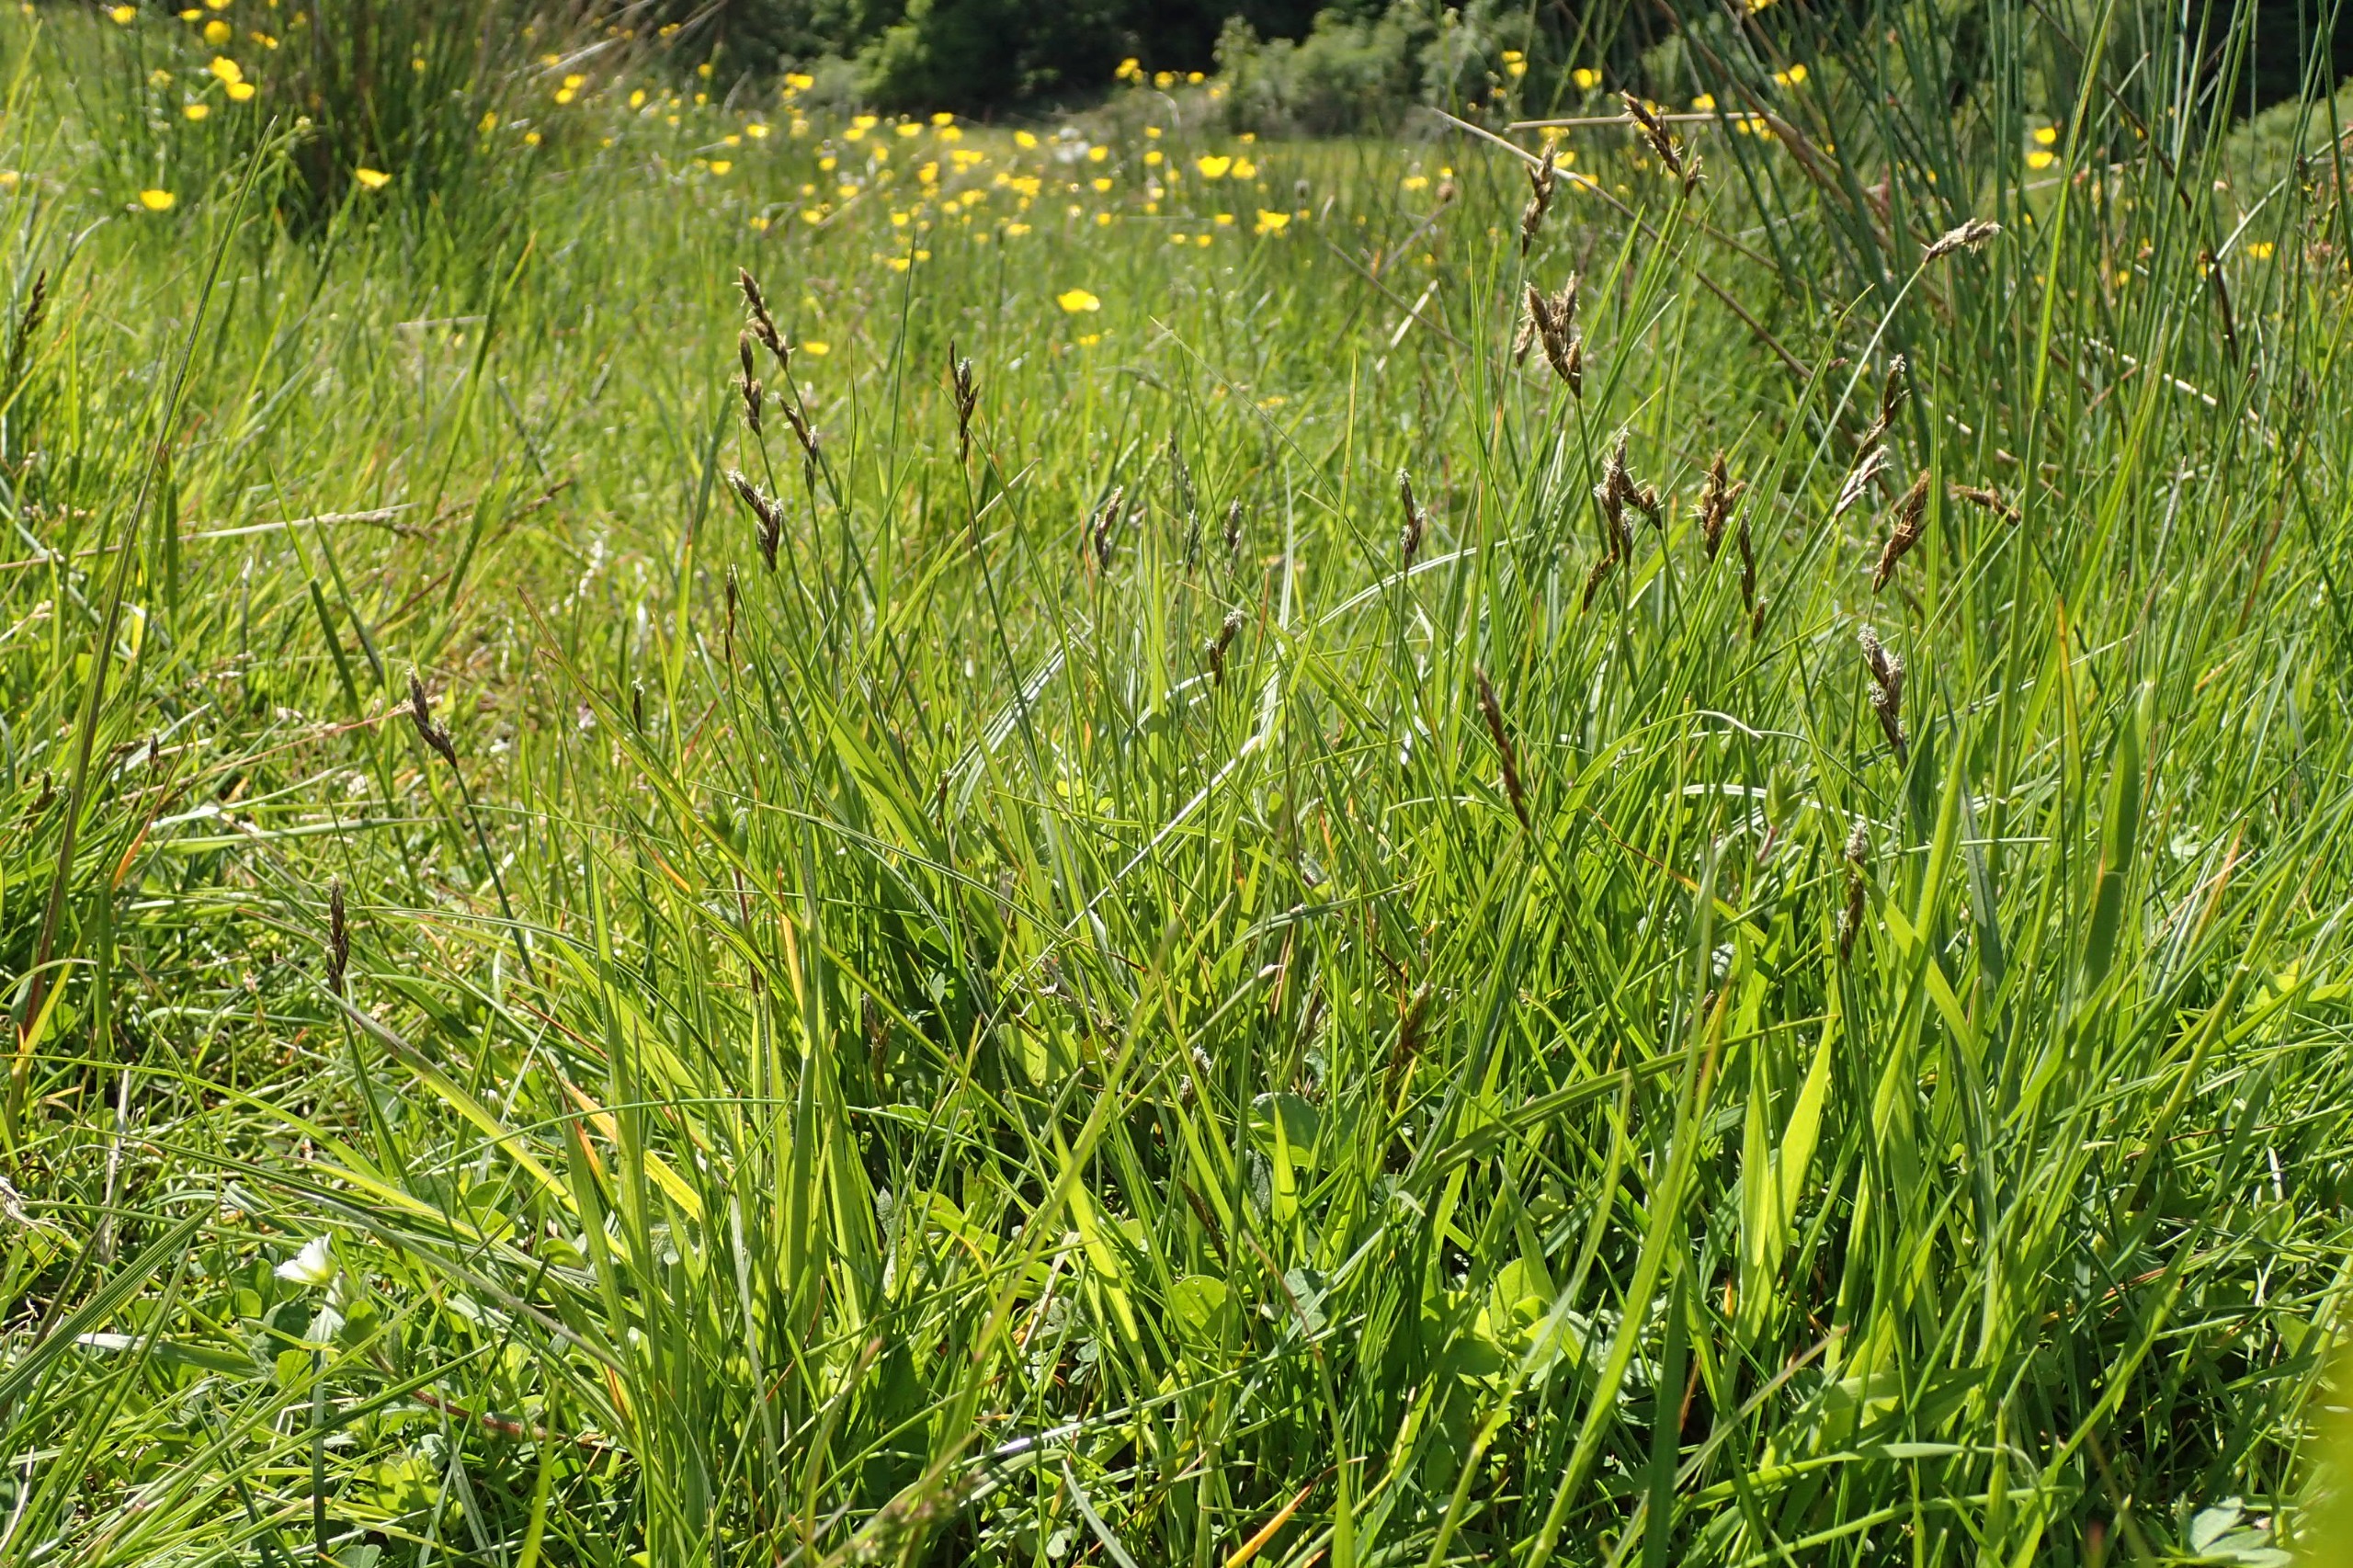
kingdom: Plantae
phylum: Tracheophyta
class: Liliopsida
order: Poales
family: Cyperaceae
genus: Carex
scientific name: Carex leporina
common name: Hare-star
